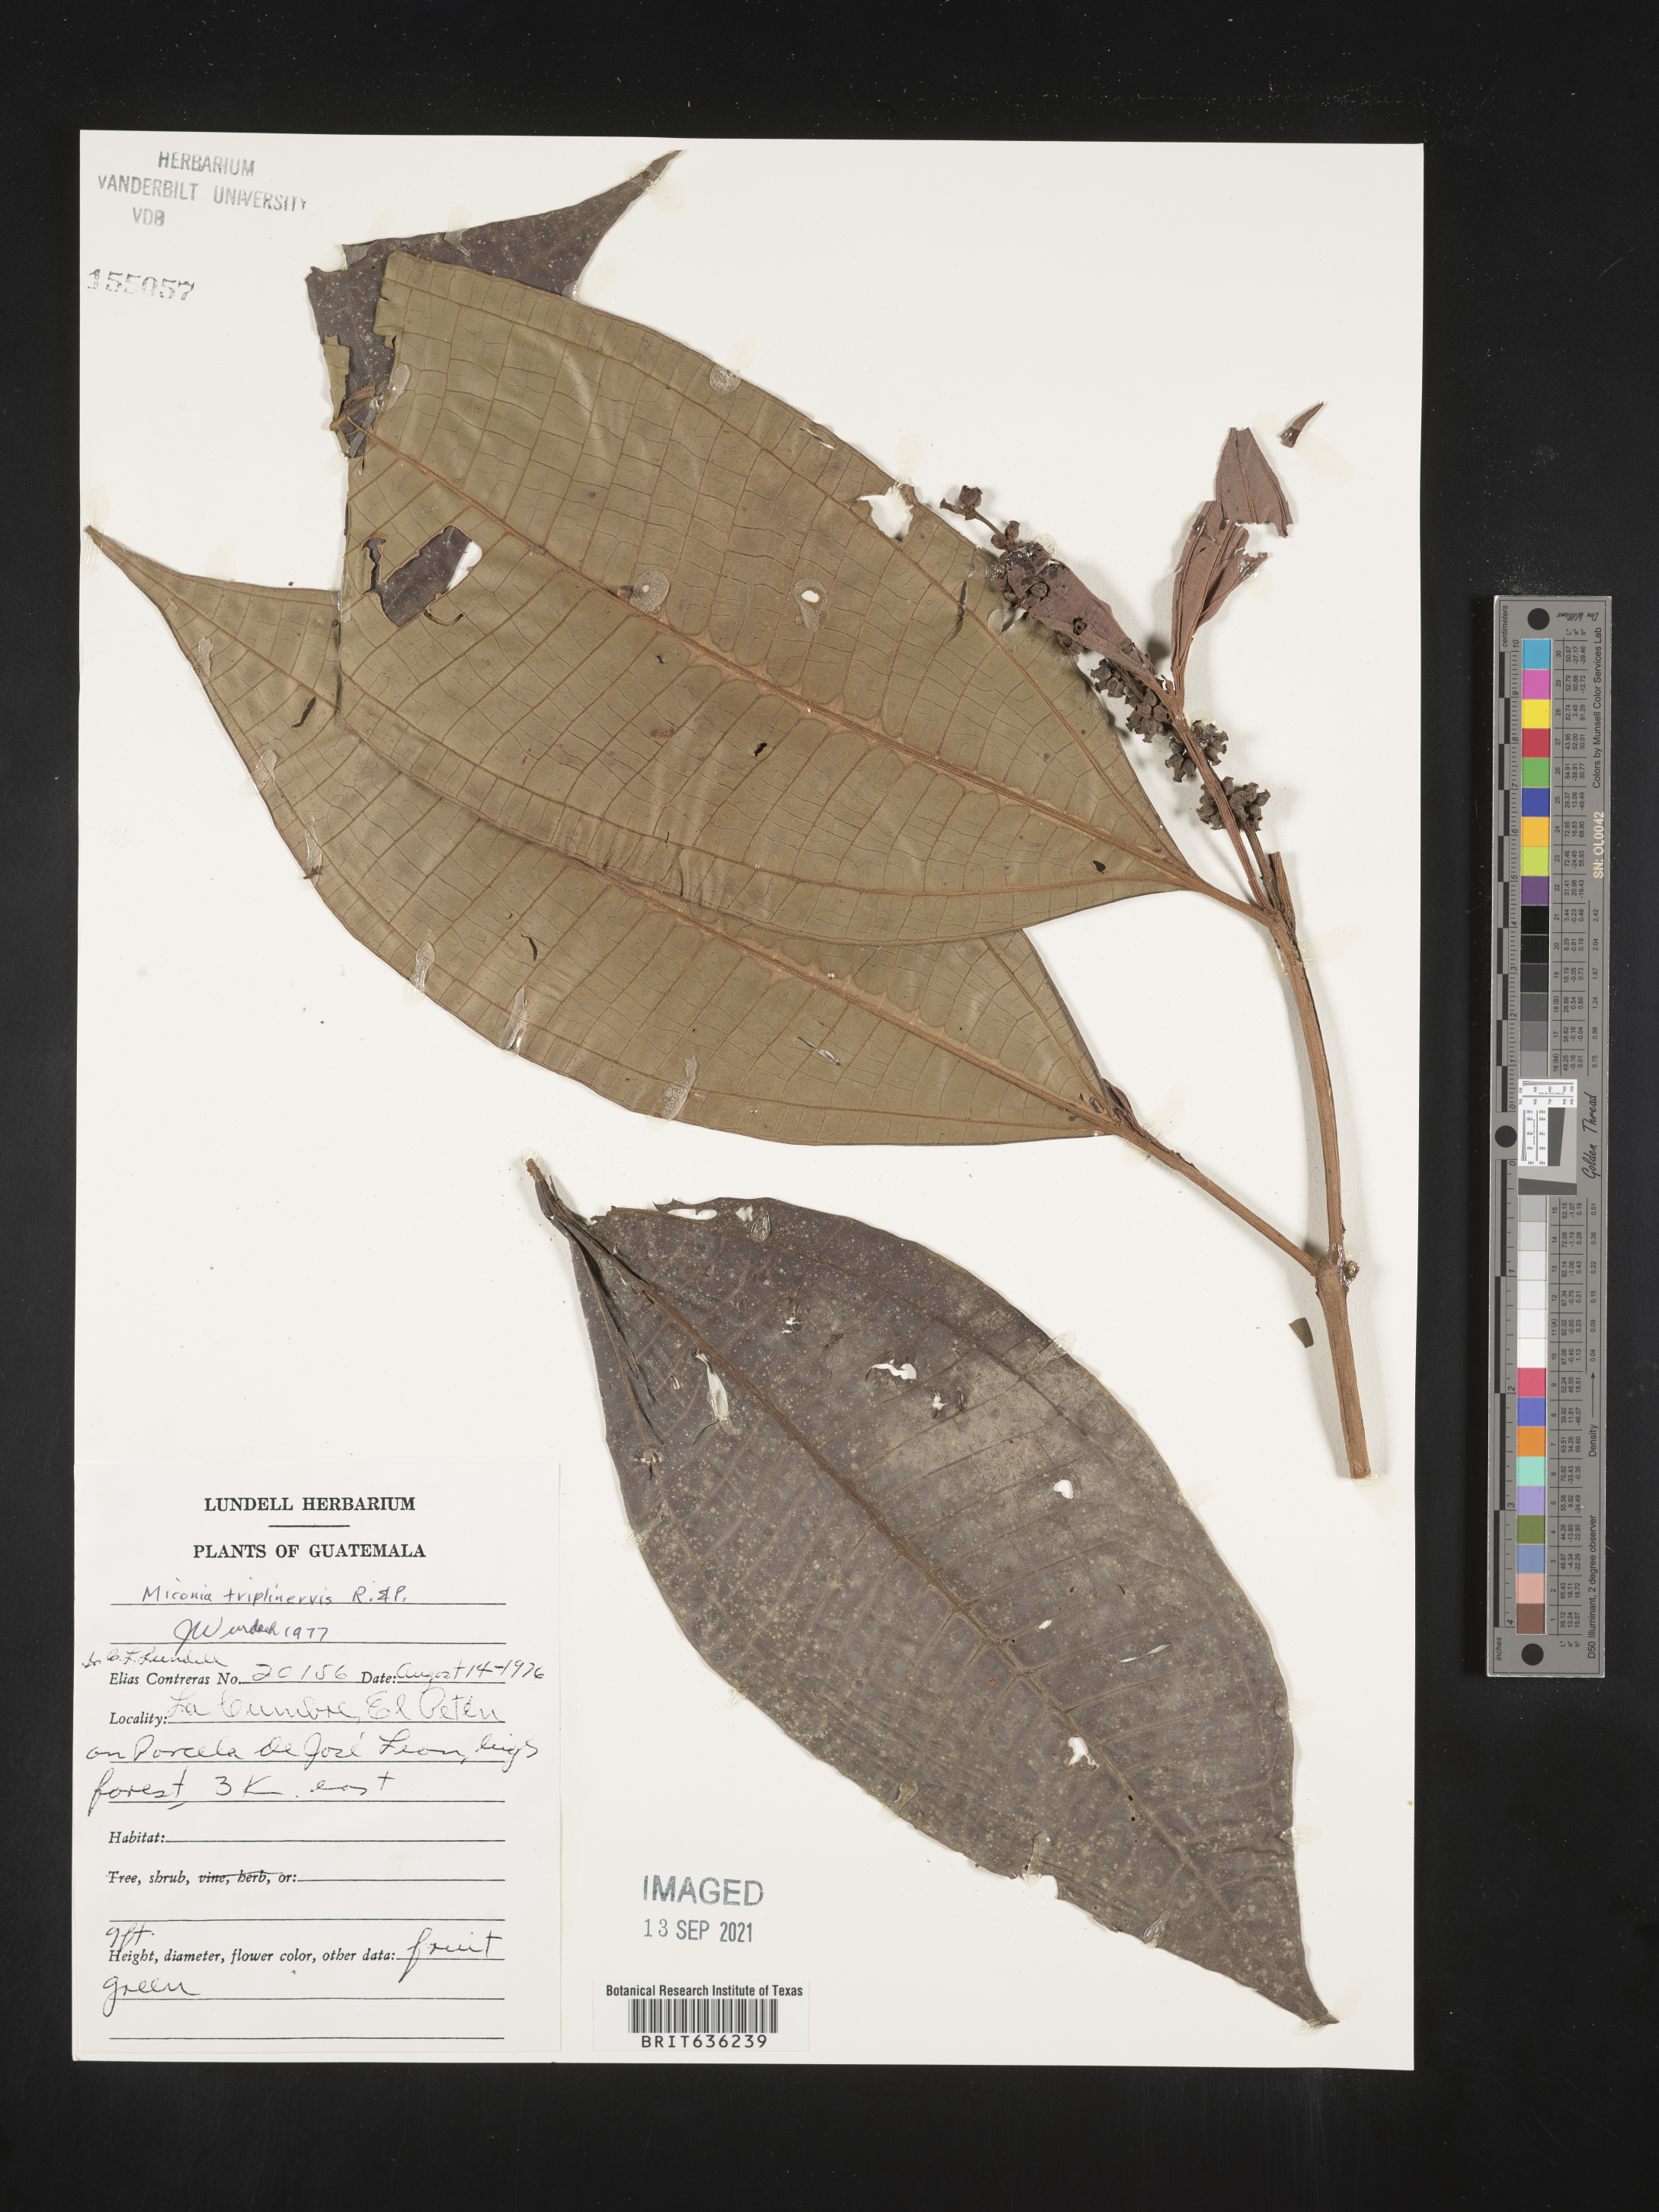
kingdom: Plantae
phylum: Tracheophyta
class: Magnoliopsida
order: Myrtales
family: Melastomataceae
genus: Miconia
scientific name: Miconia
